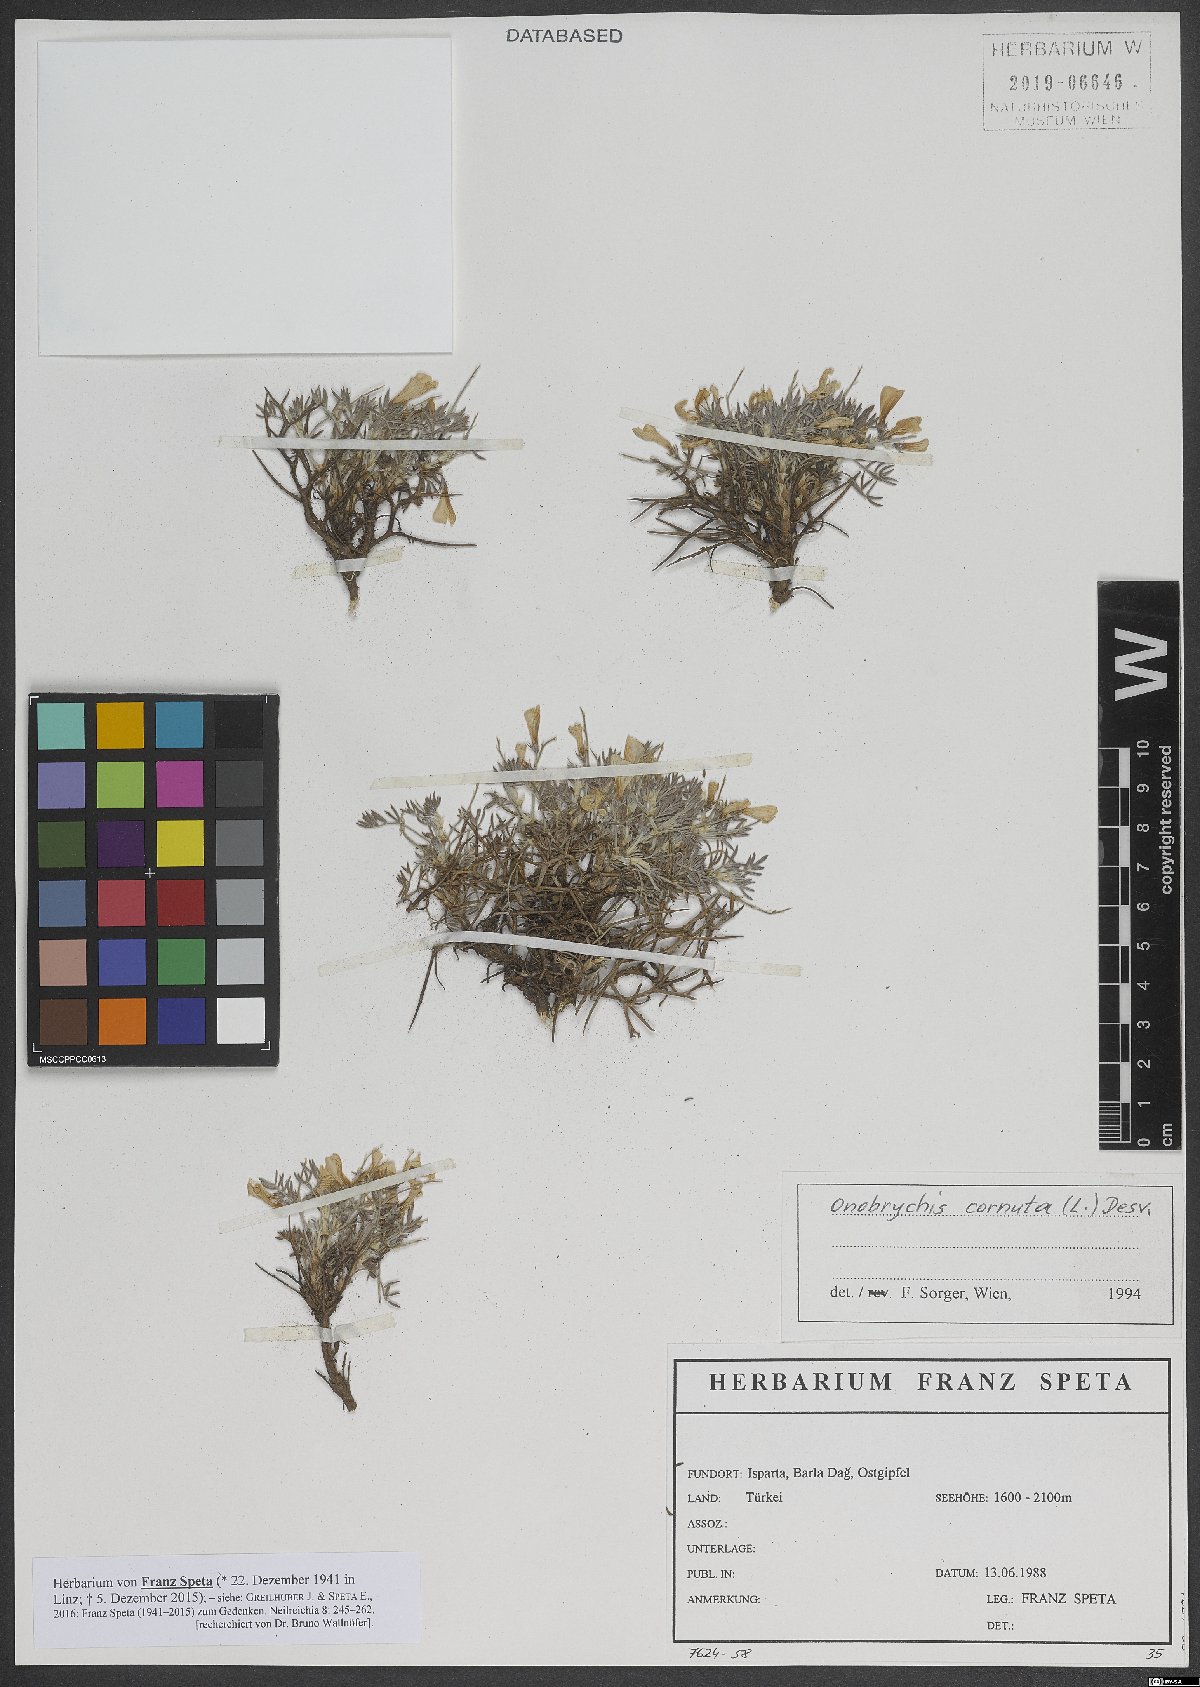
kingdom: Plantae
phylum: Tracheophyta
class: Magnoliopsida
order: Fabales
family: Fabaceae
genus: Onobrychis
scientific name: Onobrychis cornuta
